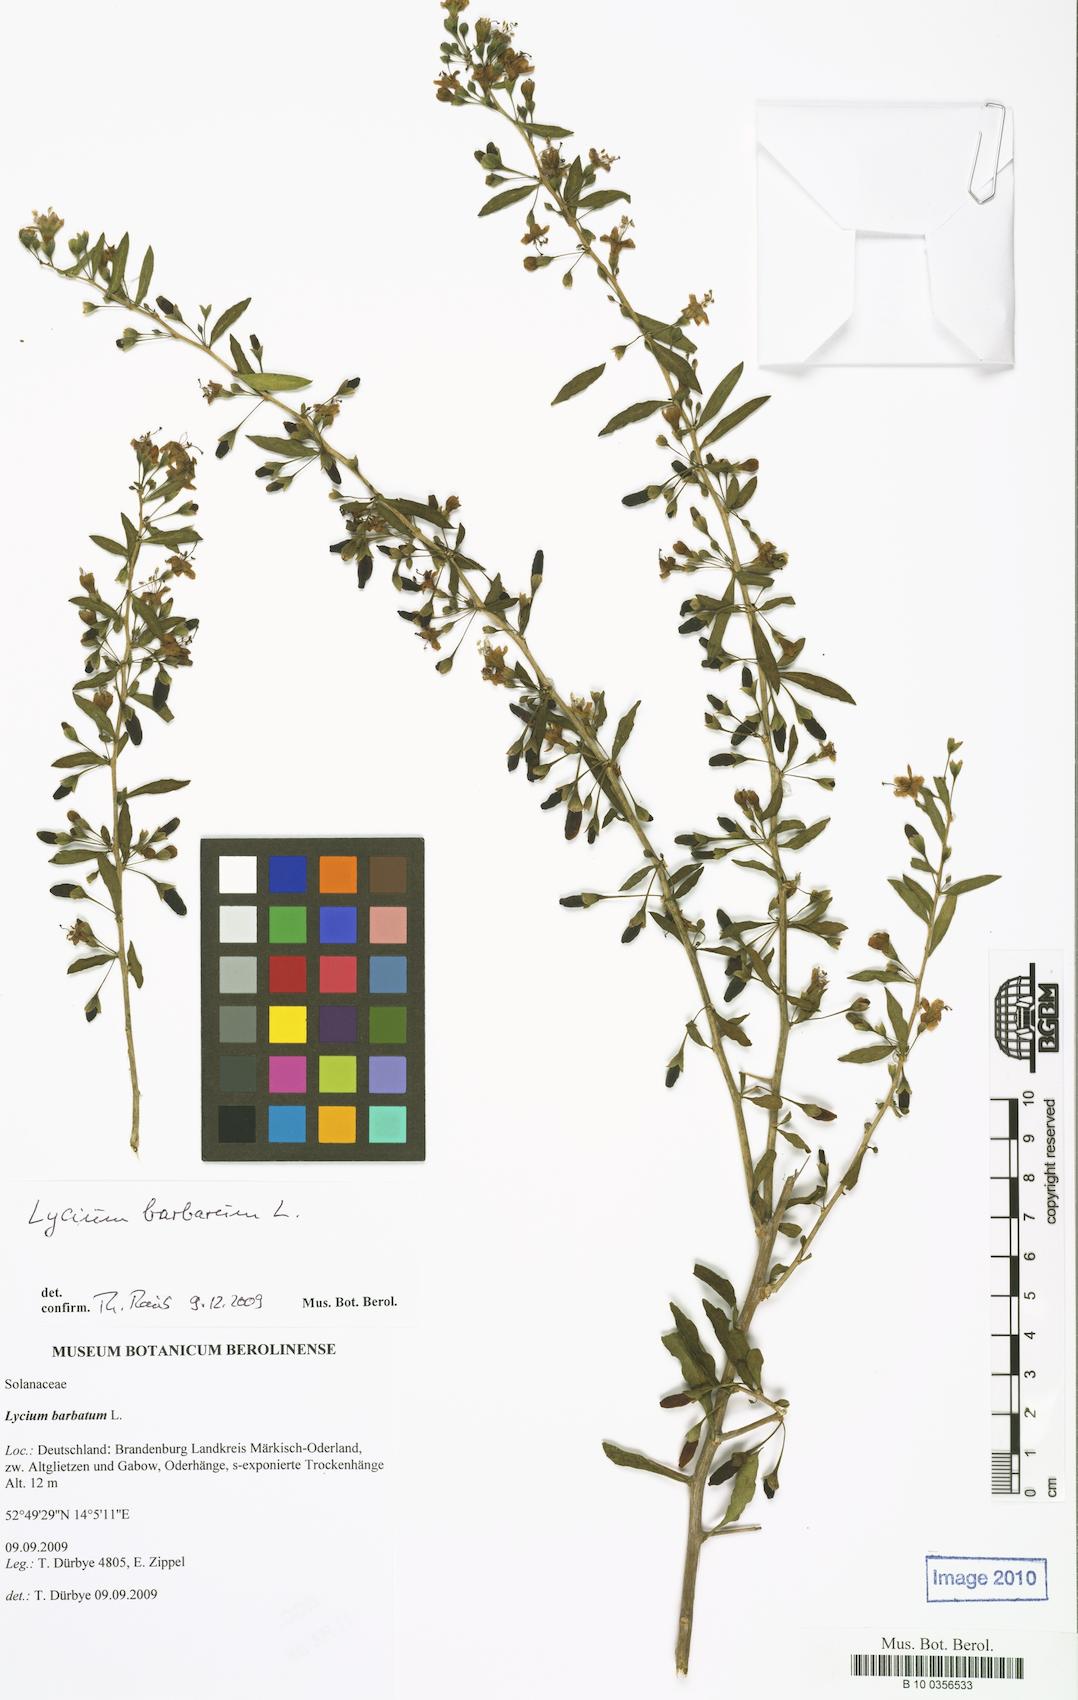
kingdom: Plantae
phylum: Tracheophyta
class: Magnoliopsida
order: Solanales
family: Solanaceae
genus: Lycium
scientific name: Lycium barbarum
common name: Duke of argyll's teaplant
